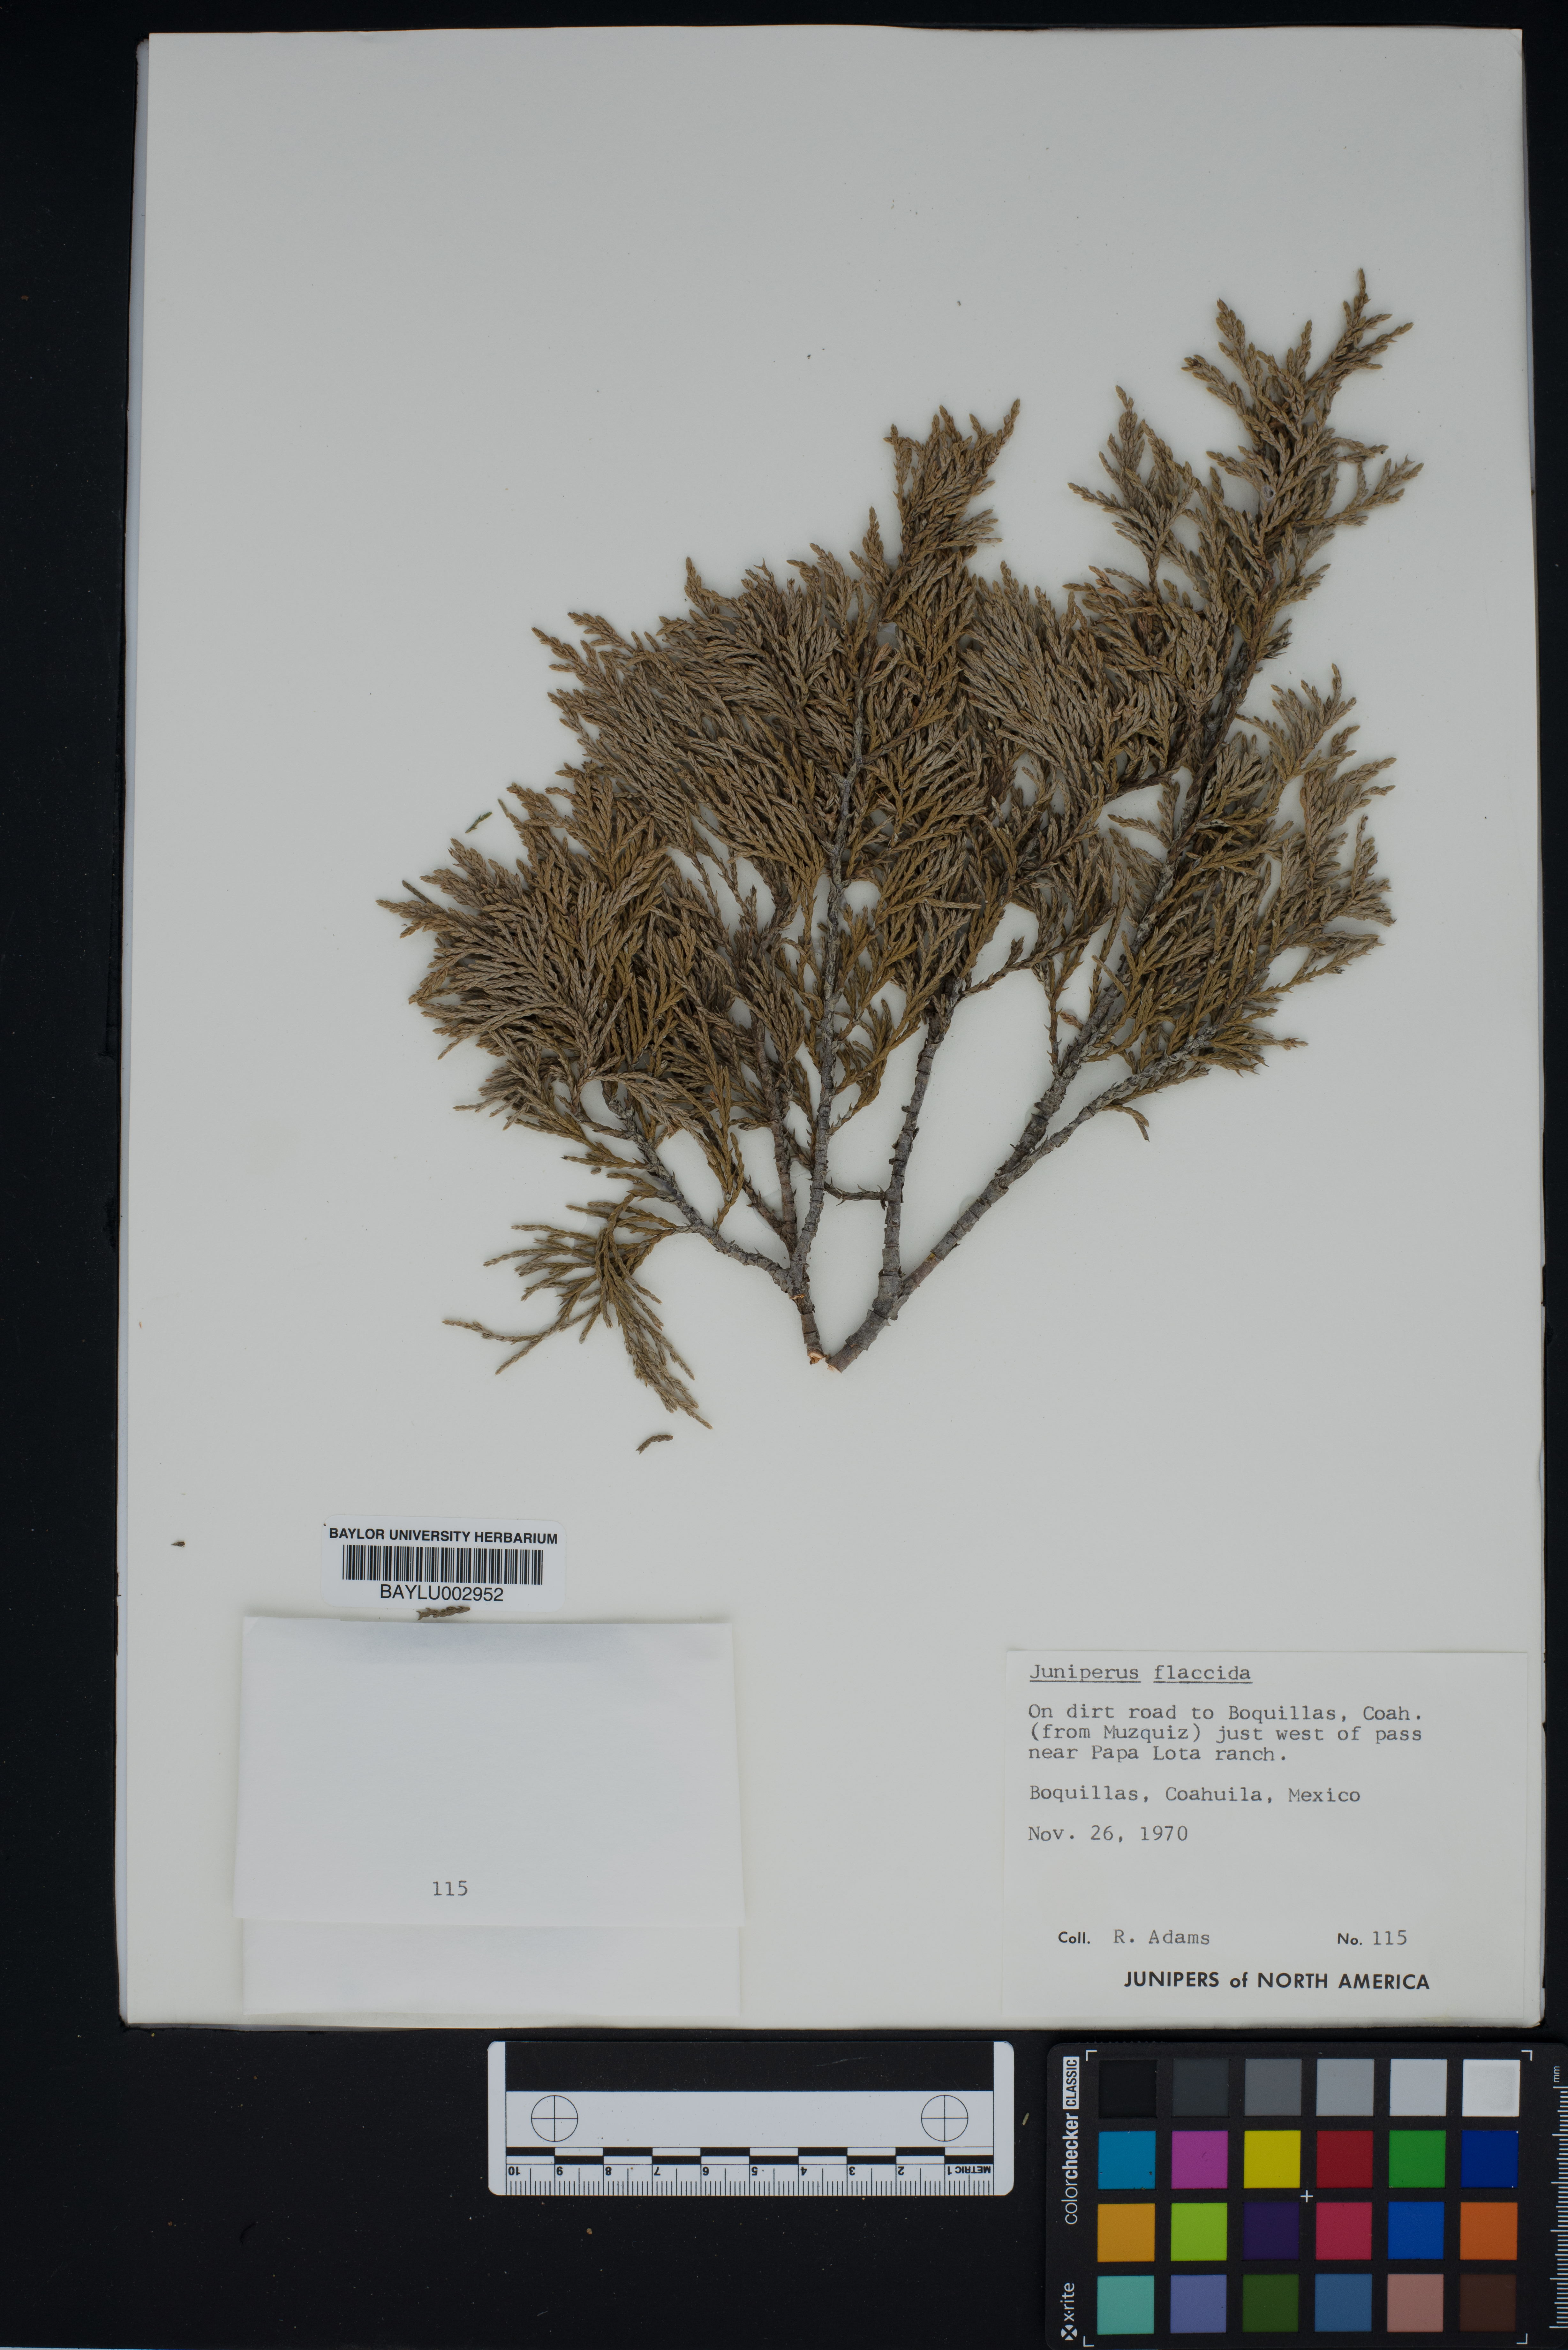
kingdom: Plantae
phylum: Tracheophyta
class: Pinopsida
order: Pinales
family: Cupressaceae
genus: Juniperus
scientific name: Juniperus flaccida
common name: Drooping juniper
